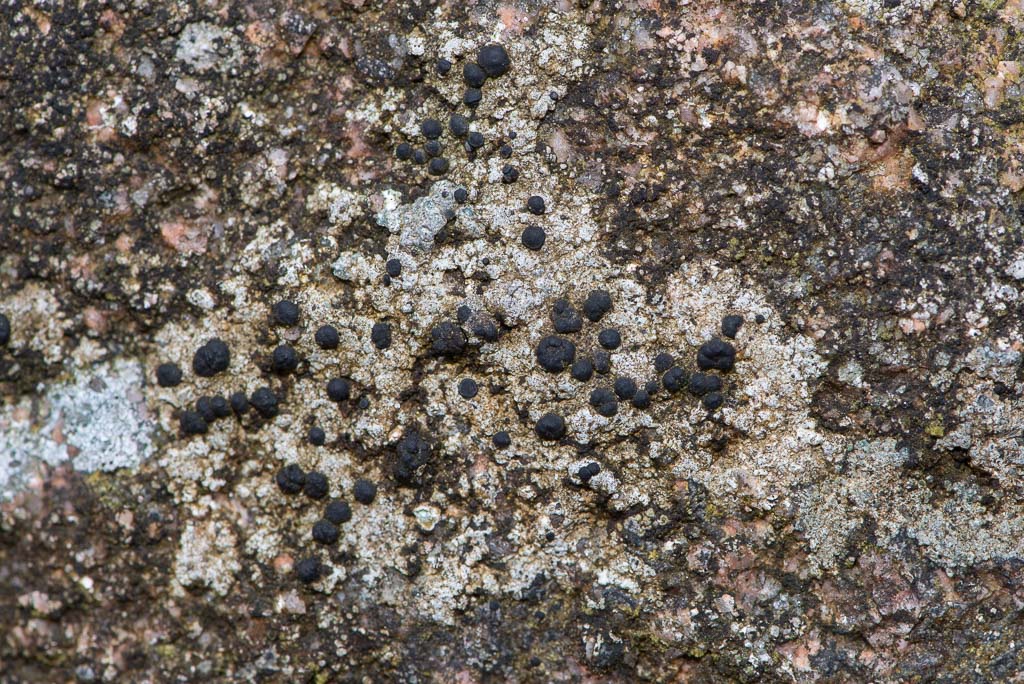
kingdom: Fungi
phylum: Ascomycota
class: Lecanoromycetes
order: Lecanorales
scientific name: Lecanorales
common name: skivelavordenen
